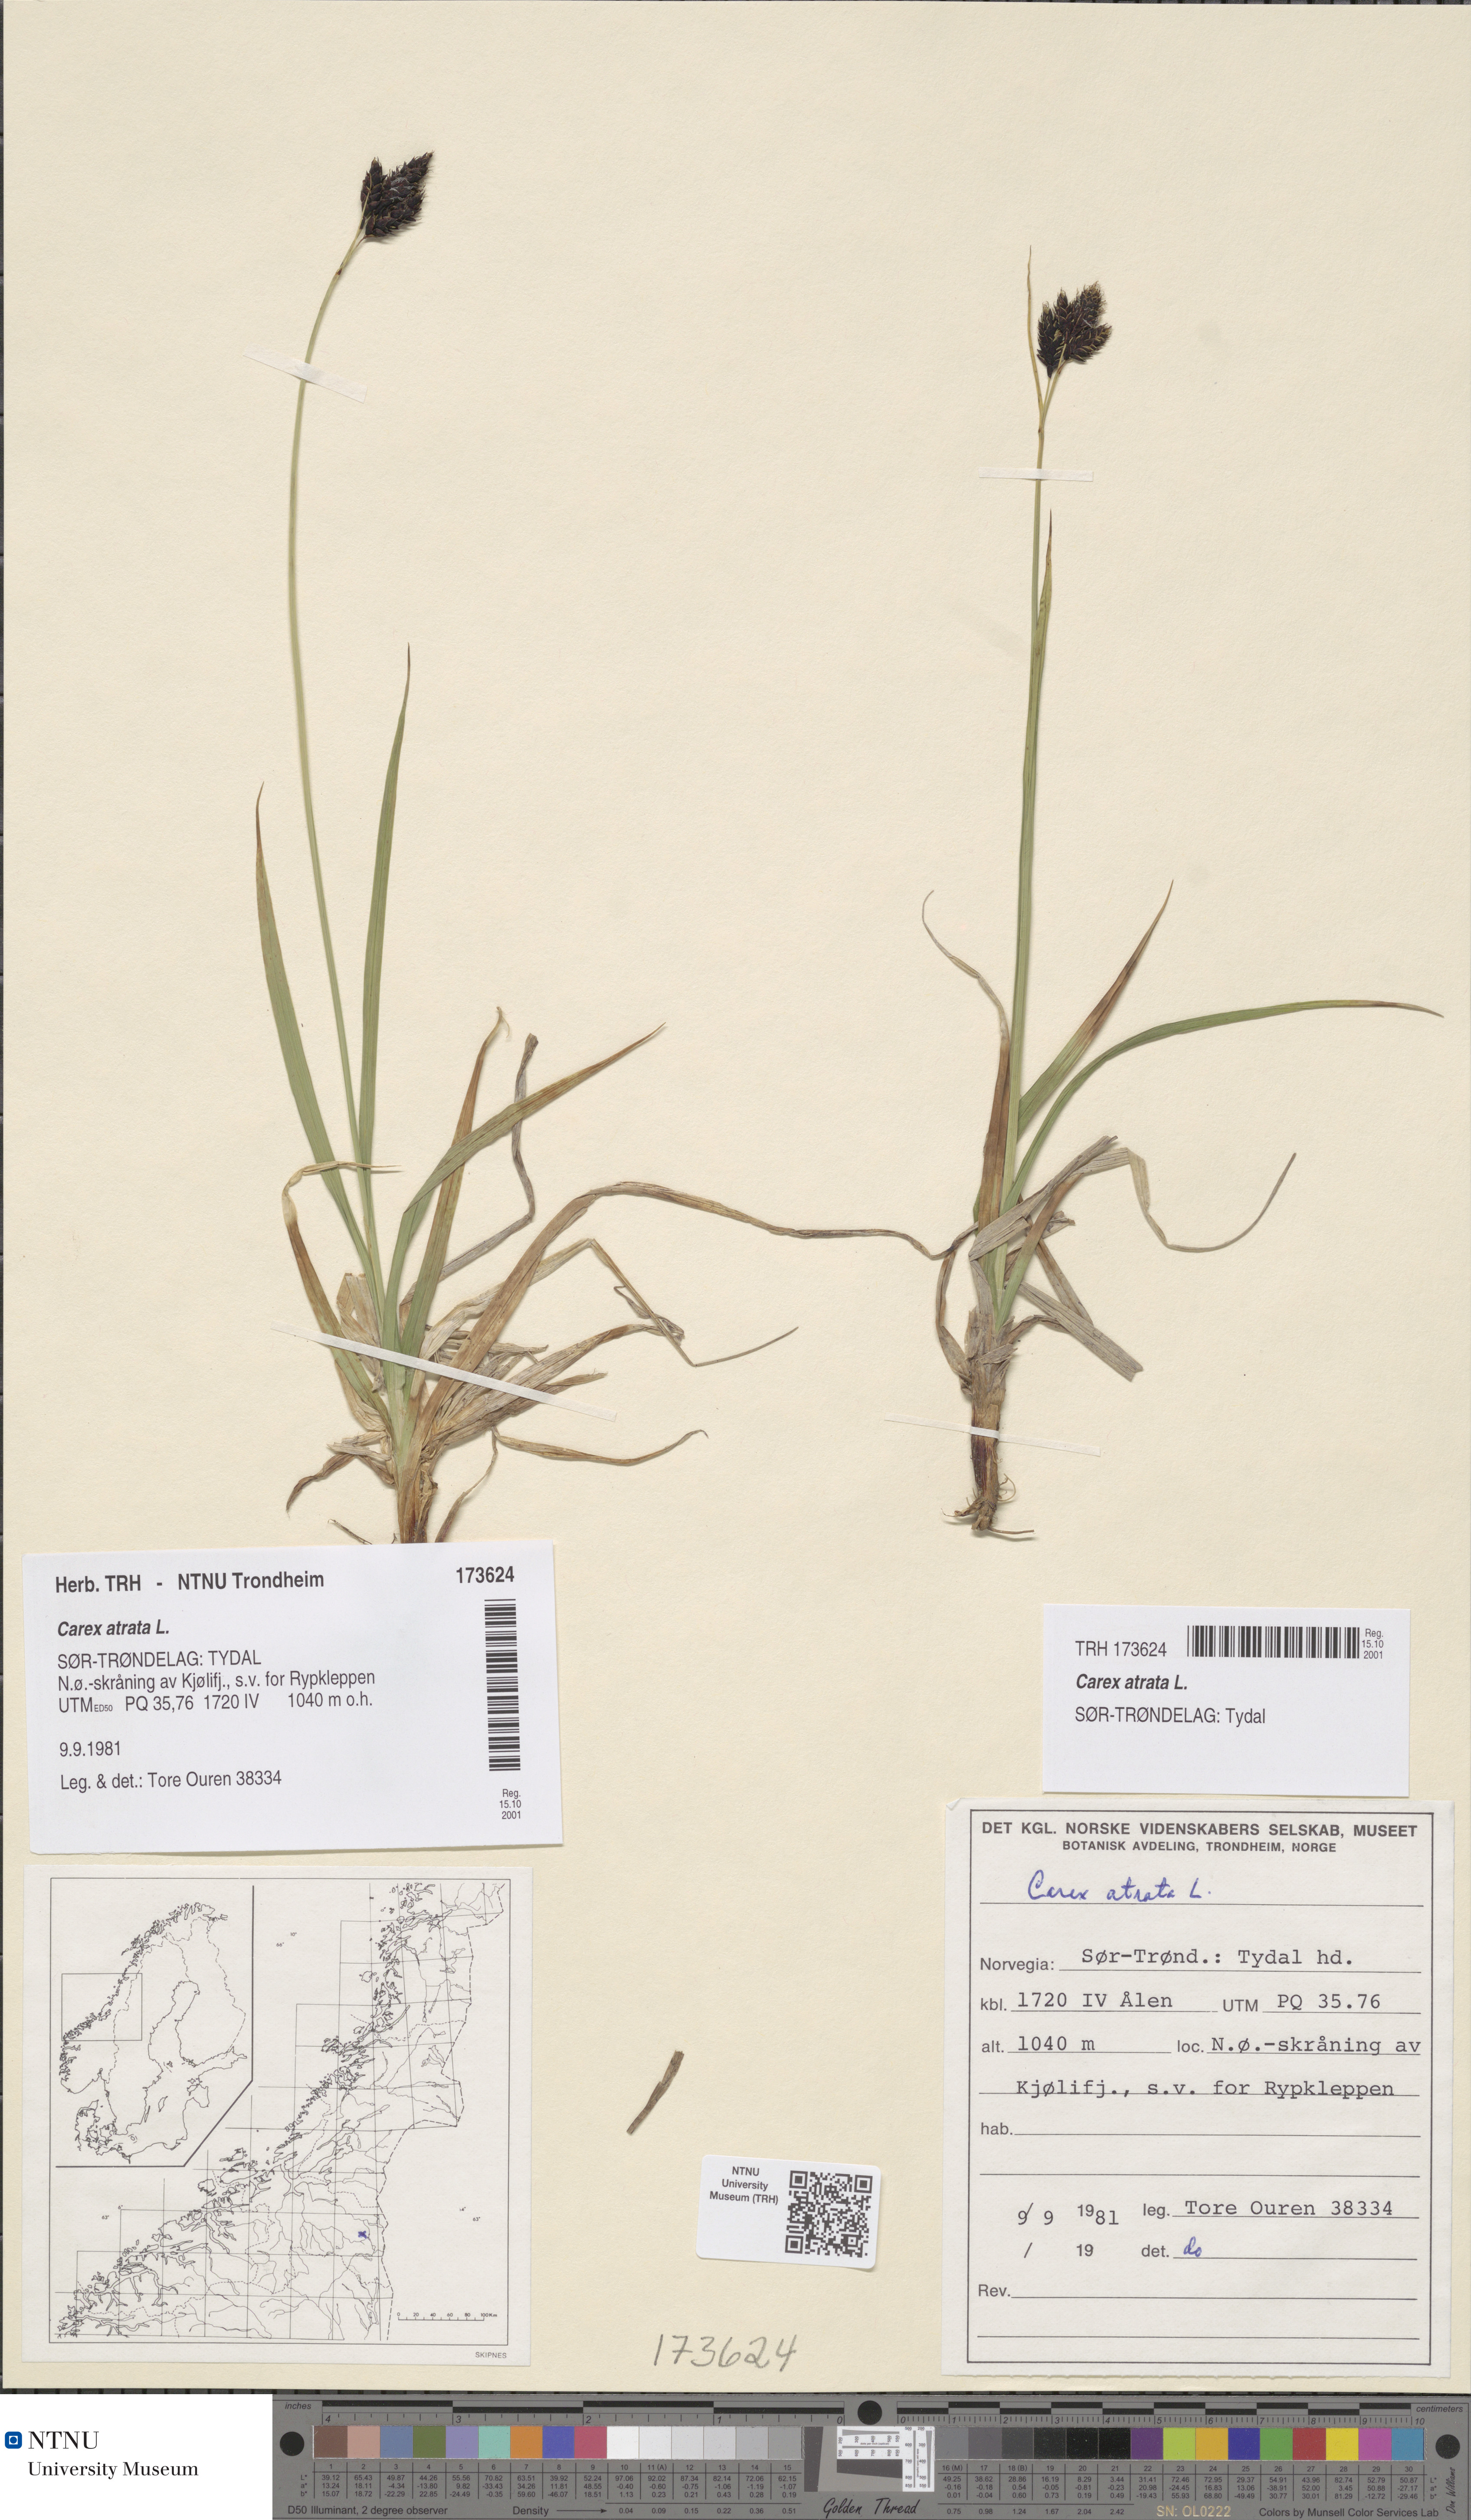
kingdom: Plantae
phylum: Tracheophyta
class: Liliopsida
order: Poales
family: Cyperaceae
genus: Carex
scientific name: Carex atrata
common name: Black alpine sedge
